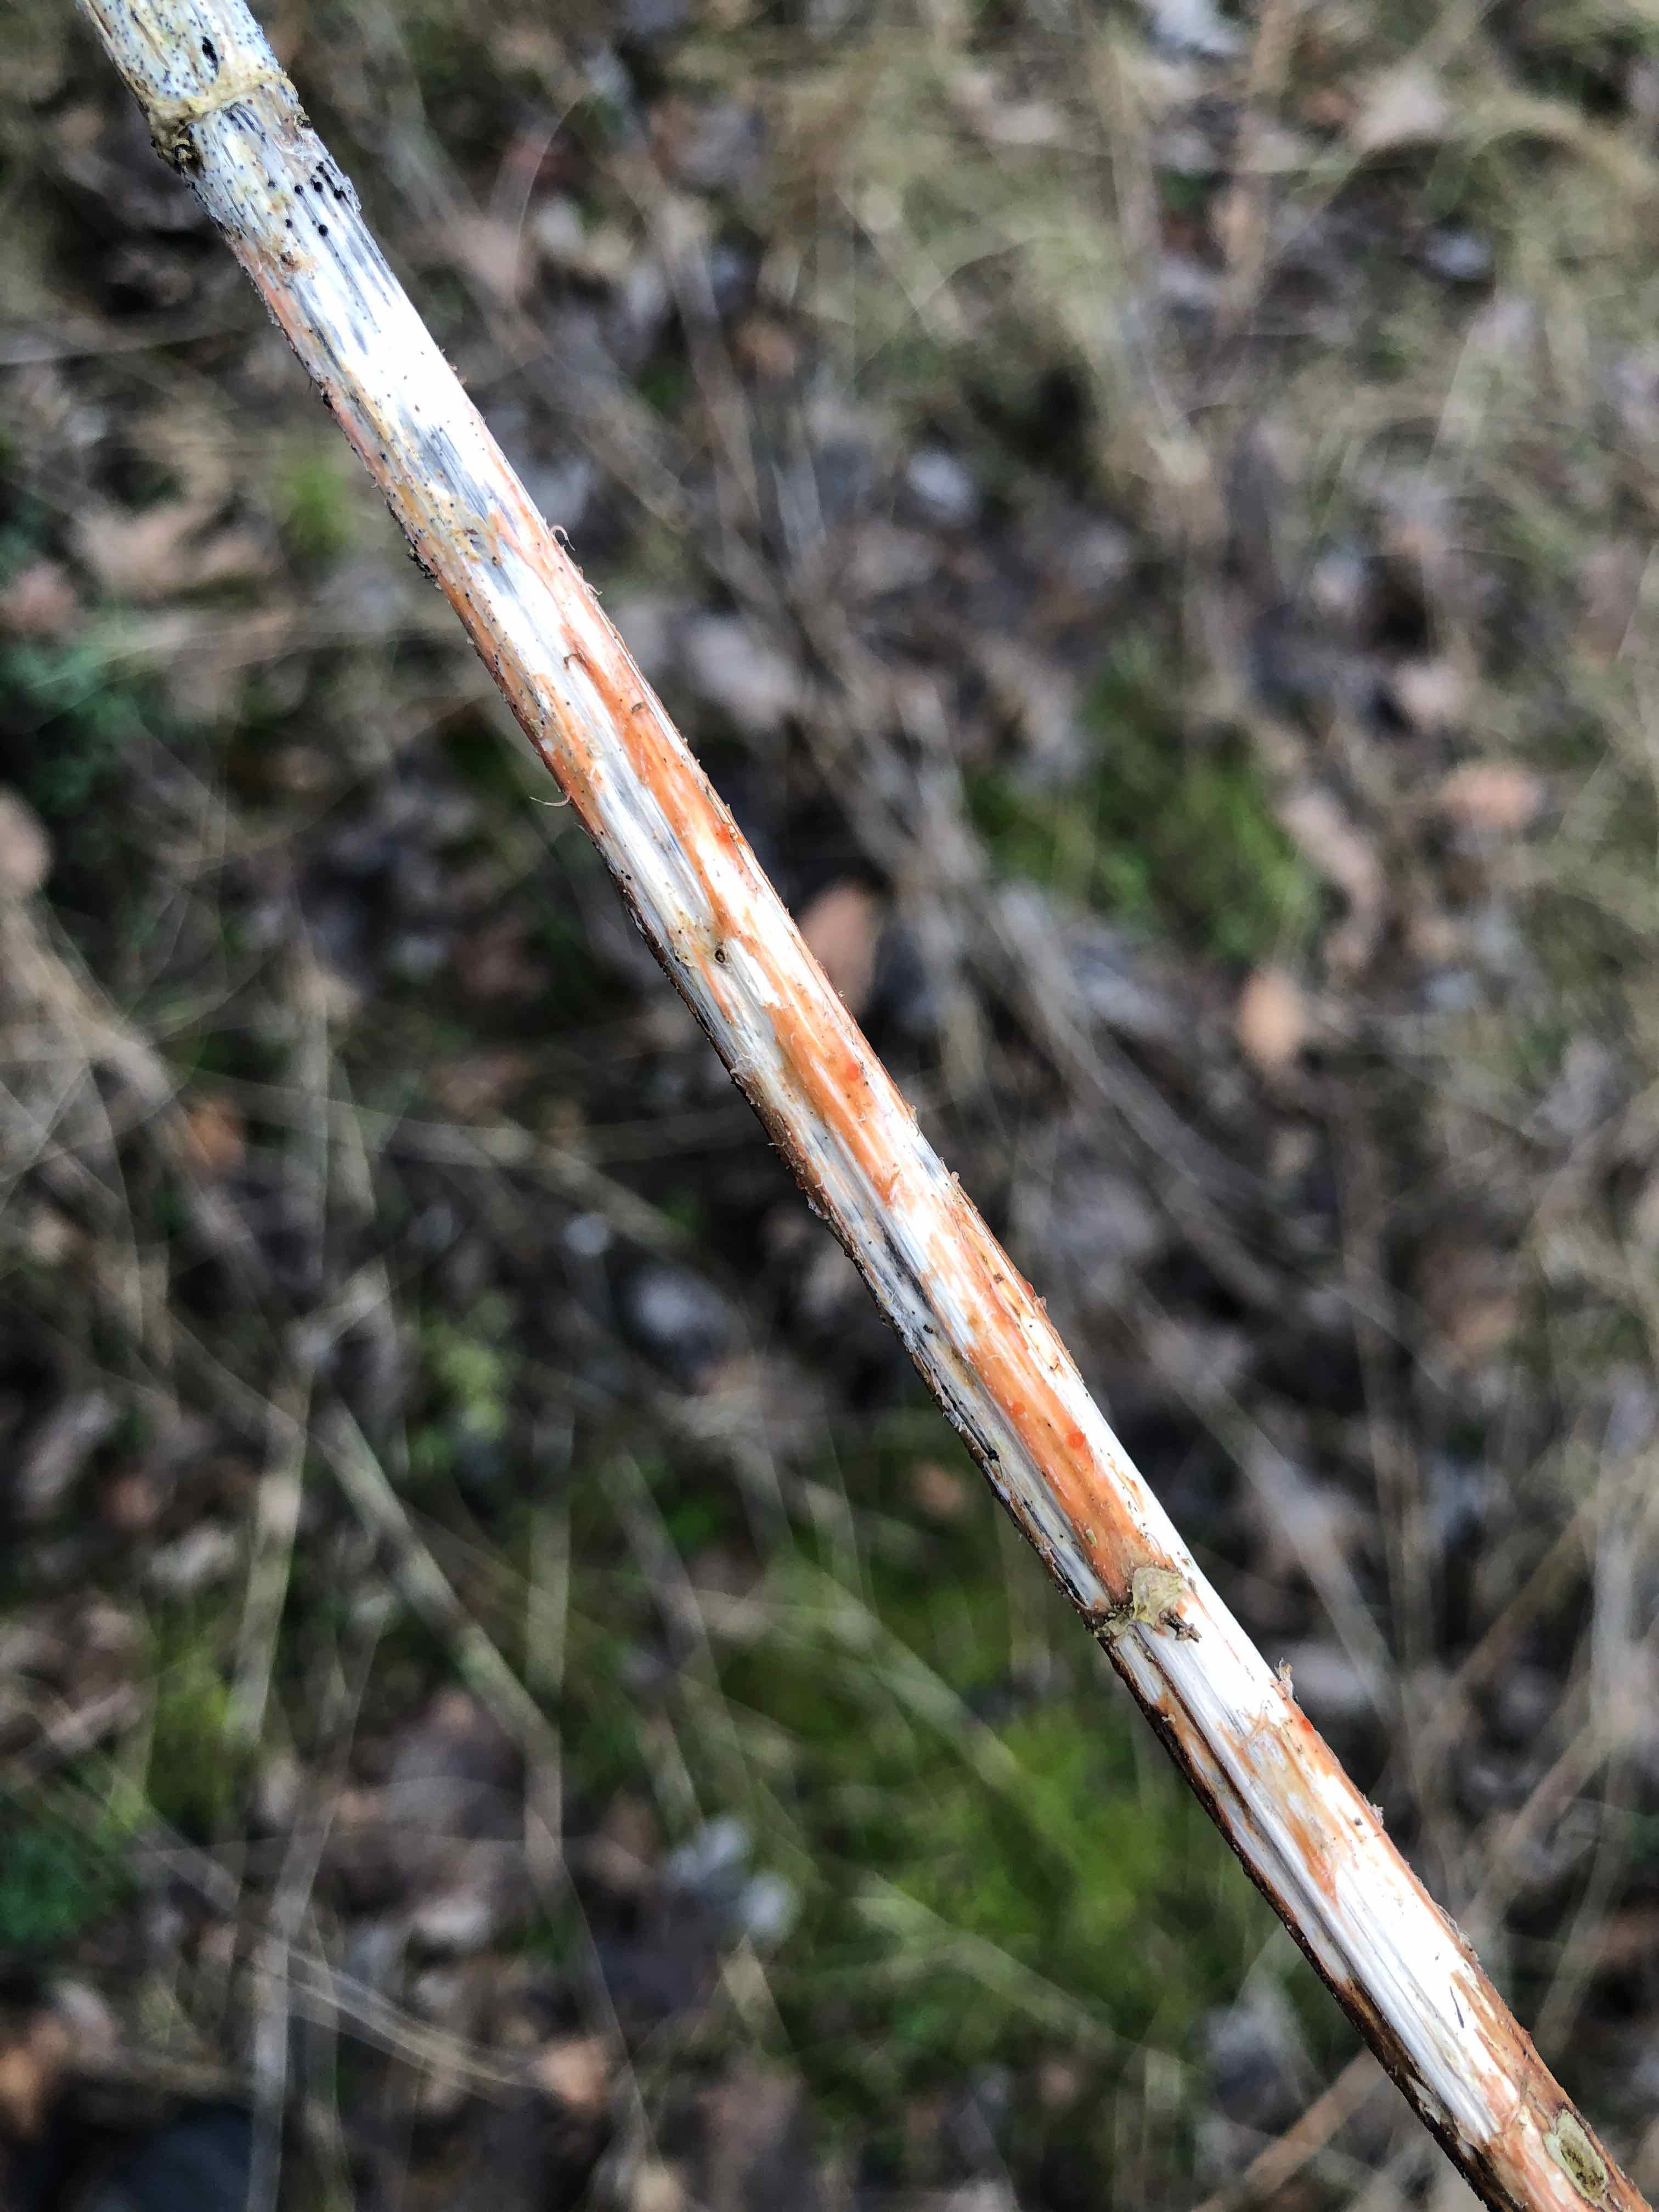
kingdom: Fungi
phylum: Ascomycota
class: Leotiomycetes
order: Helotiales
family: Calloriaceae
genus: Calloria
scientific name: Calloria urticae
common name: nælde-orangeskive
